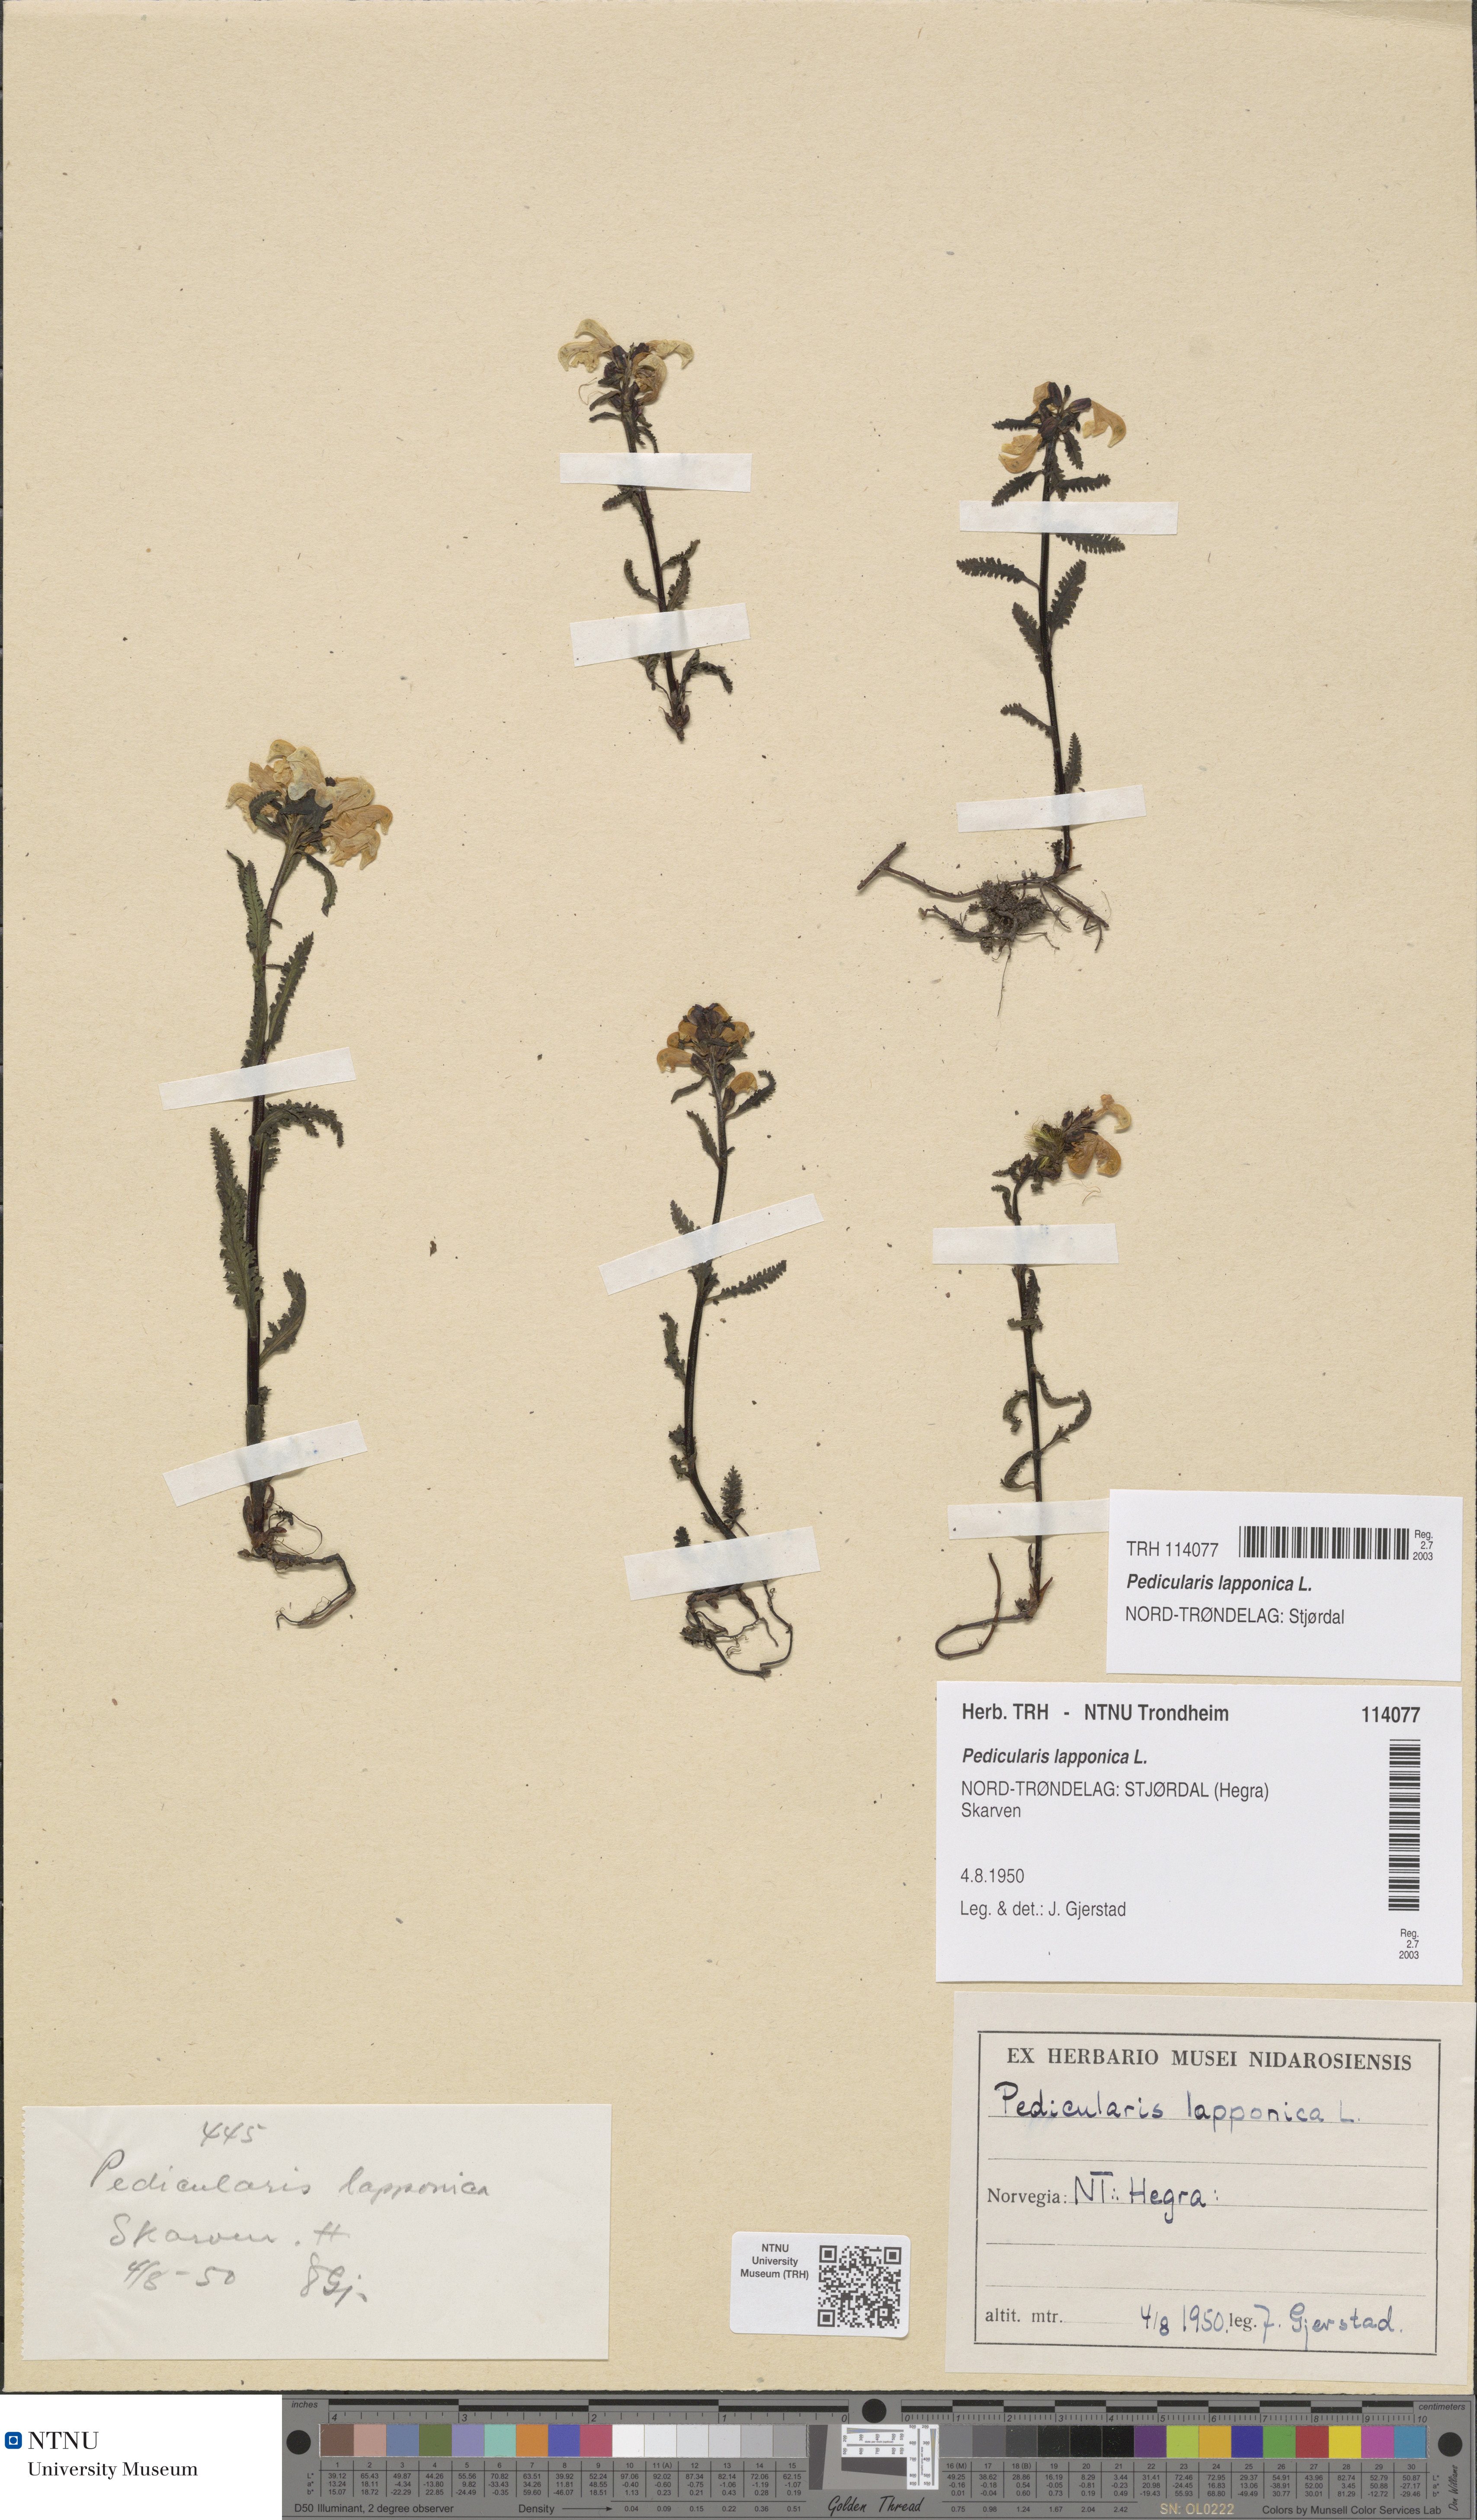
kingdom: Plantae
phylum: Tracheophyta
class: Magnoliopsida
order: Lamiales
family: Orobanchaceae
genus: Pedicularis
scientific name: Pedicularis lapponica
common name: Lapland lousewort
